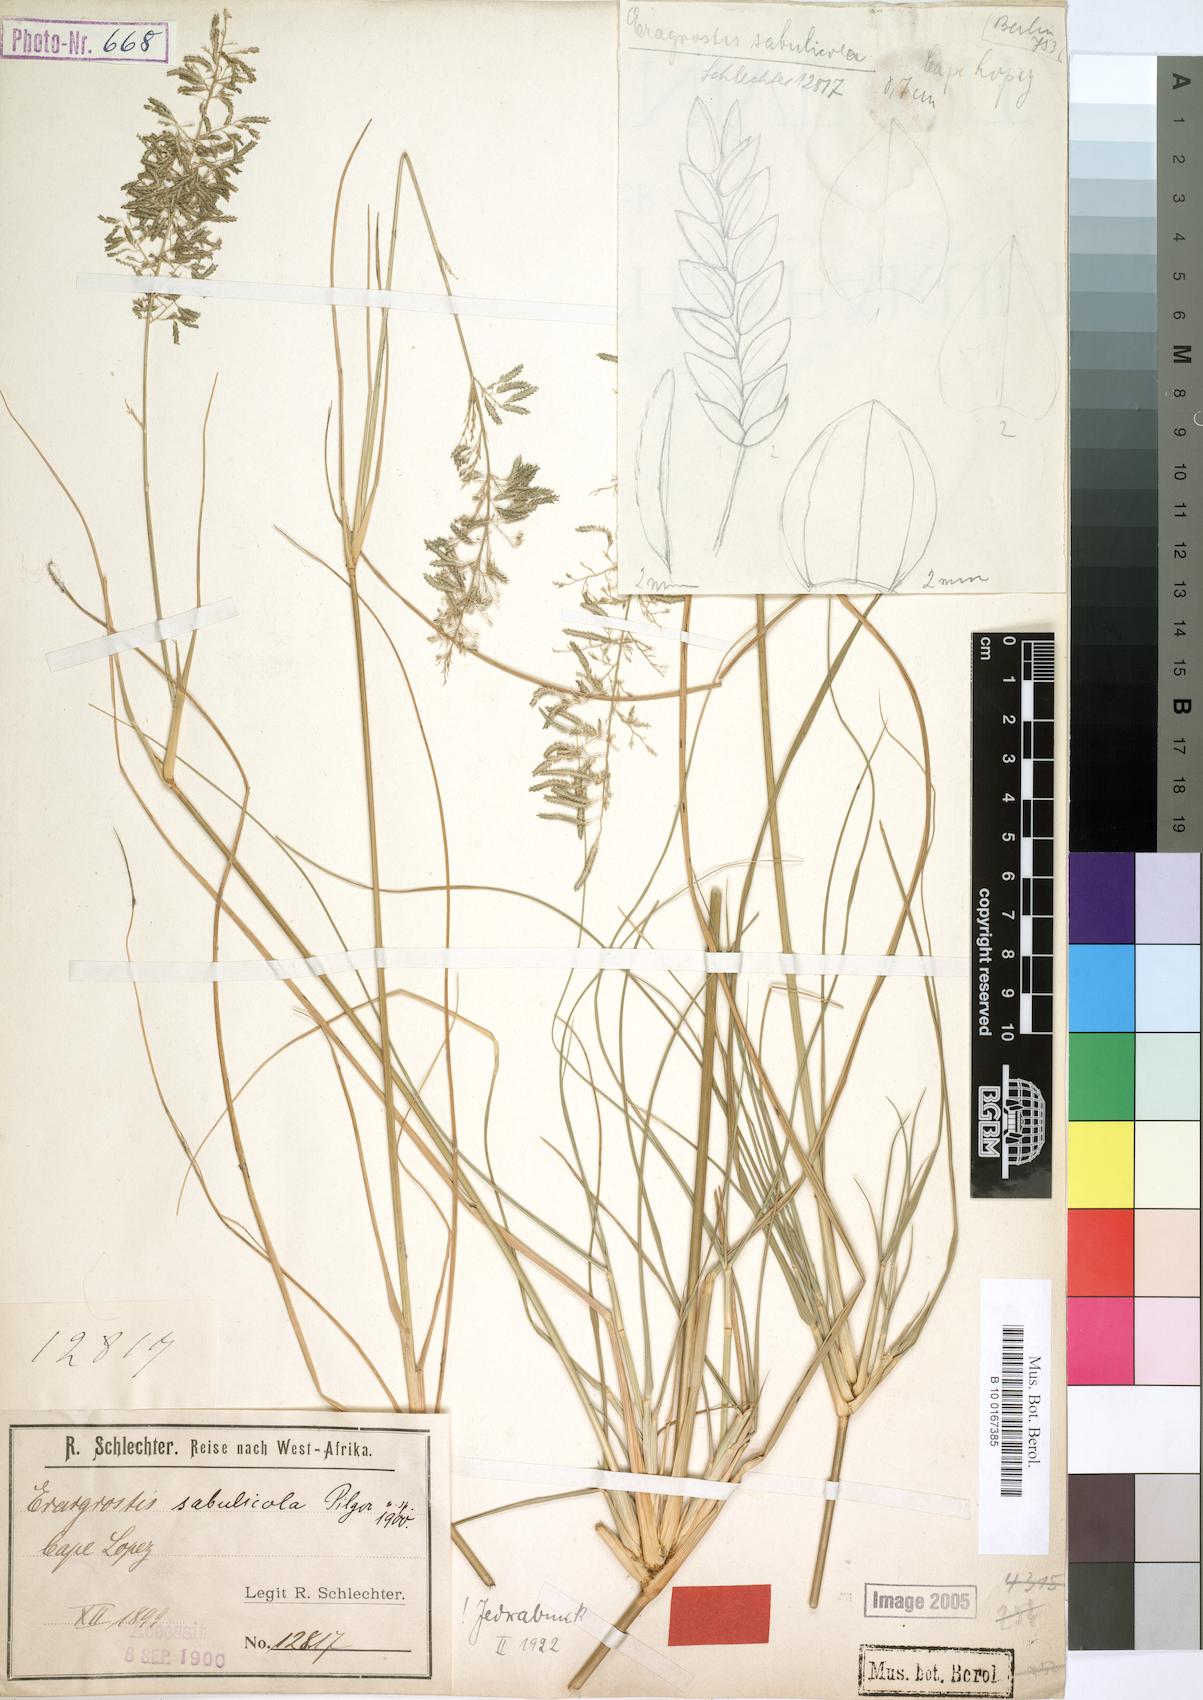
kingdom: Plantae
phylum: Tracheophyta
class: Liliopsida
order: Poales
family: Poaceae
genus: Eragrostis
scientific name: Eragrostis sabulicola
